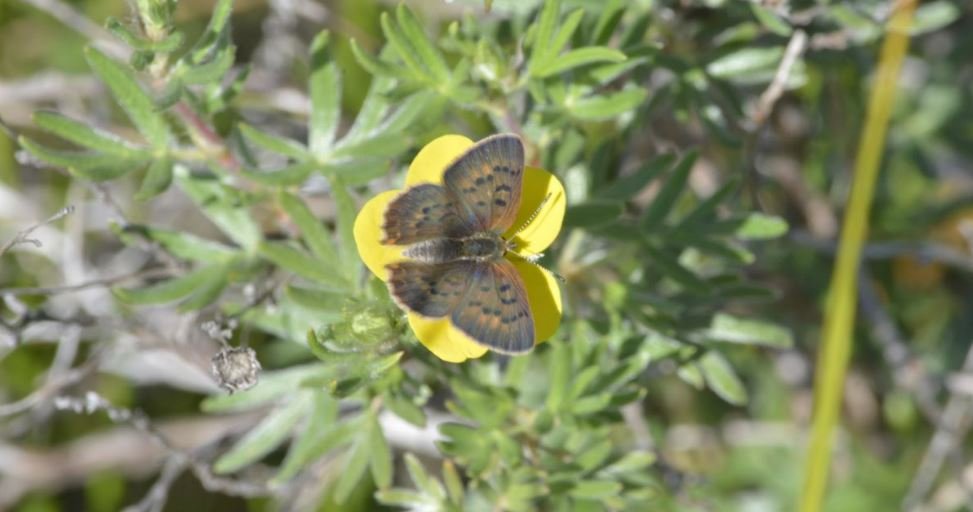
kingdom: Animalia
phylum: Arthropoda
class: Insecta
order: Lepidoptera
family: Lycaenidae
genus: Epidemia
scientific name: Epidemia dorcas
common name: Dorcas Copper
